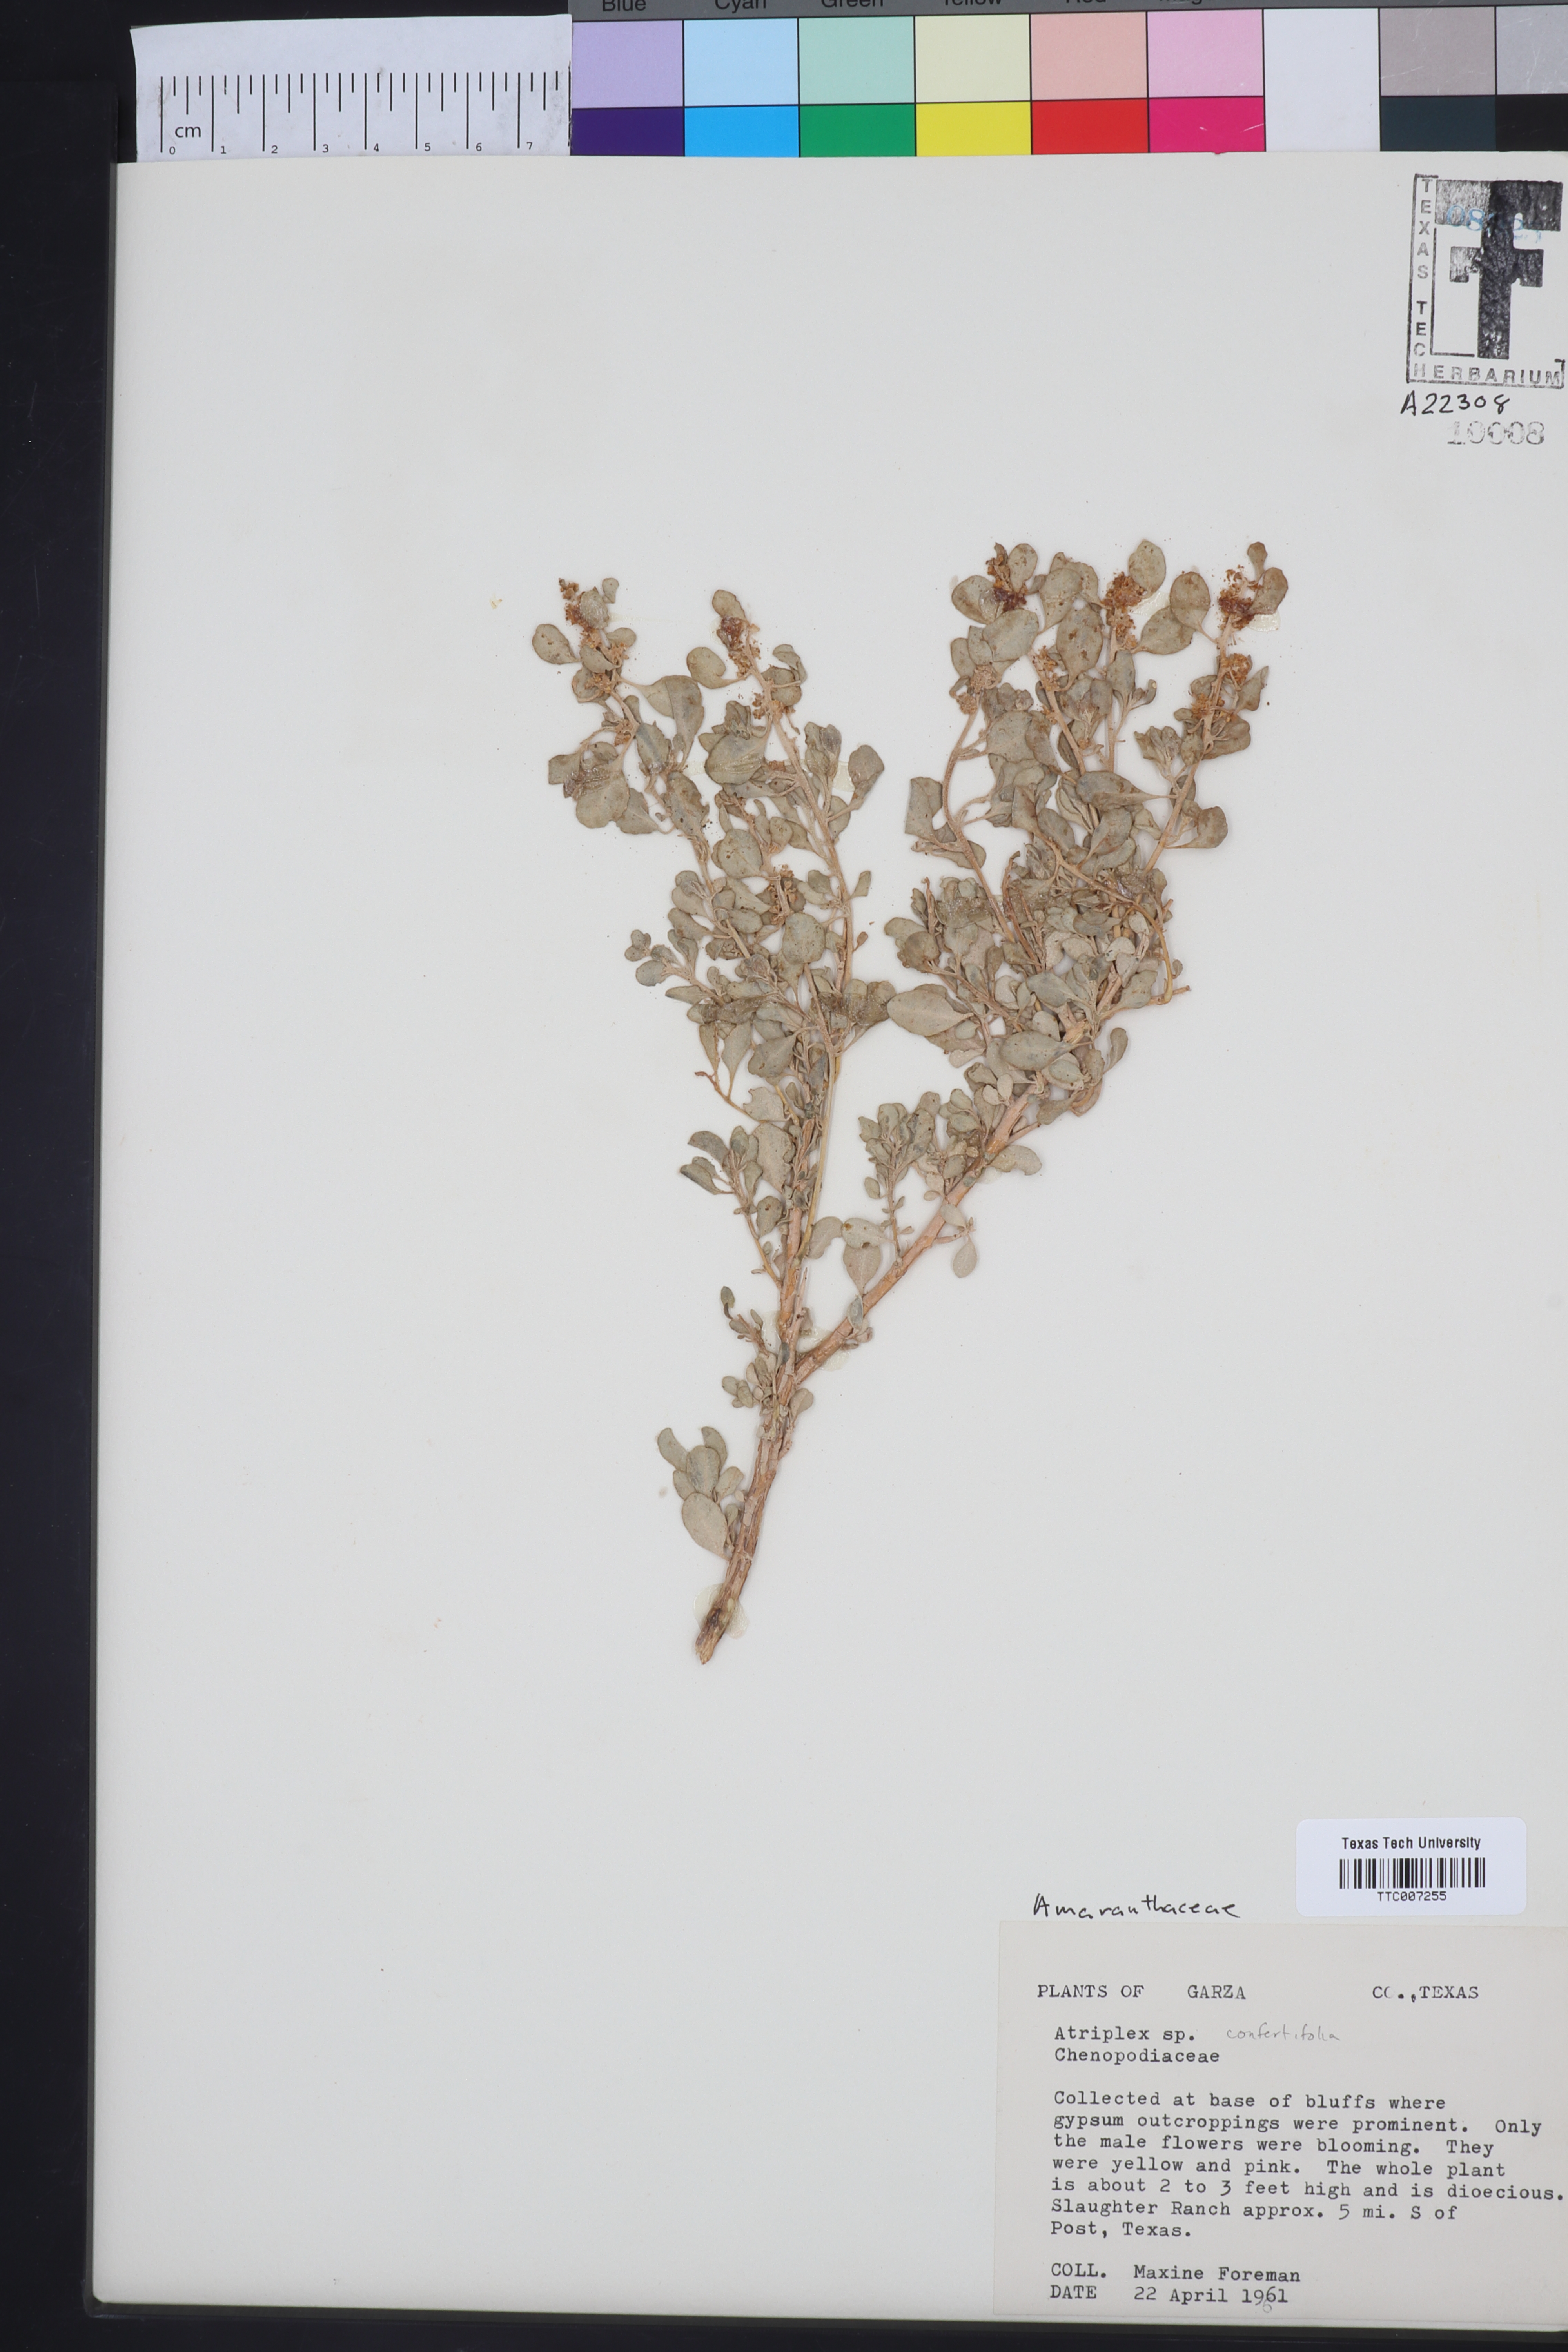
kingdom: Plantae
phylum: Tracheophyta
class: Magnoliopsida
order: Caryophyllales
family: Amaranthaceae
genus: Atriplex
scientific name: Atriplex confertifolia
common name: Shadscale
